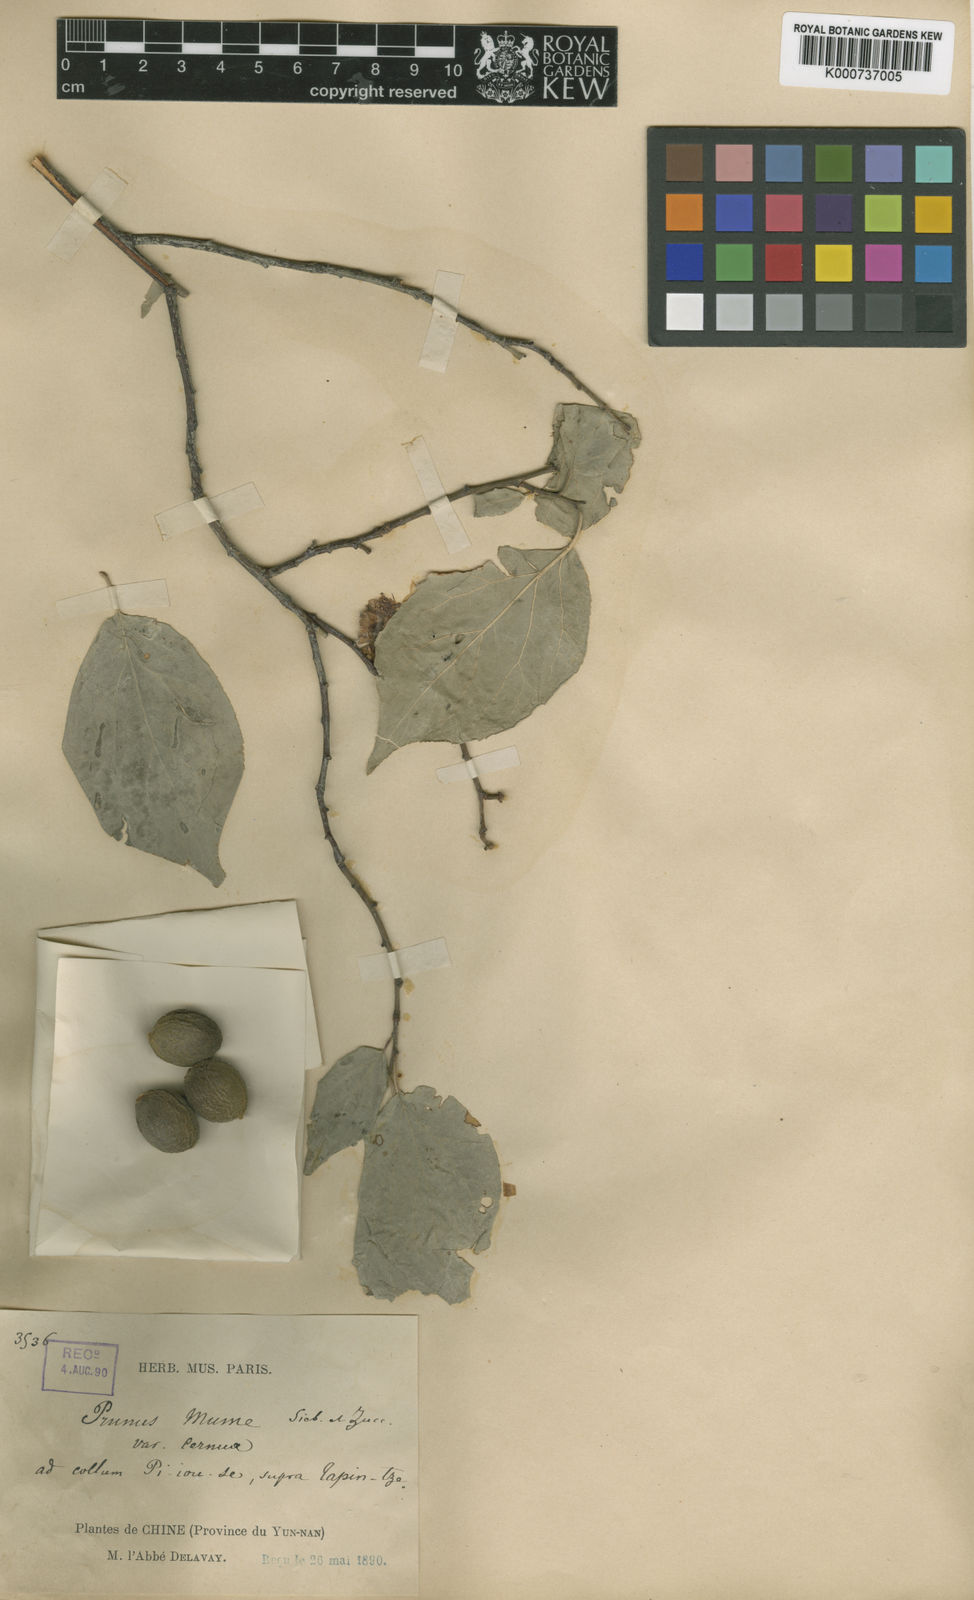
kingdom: Plantae
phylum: Tracheophyta
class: Magnoliopsida
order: Rosales
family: Rosaceae
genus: Prunus
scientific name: Prunus mume
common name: Japanese apricot
